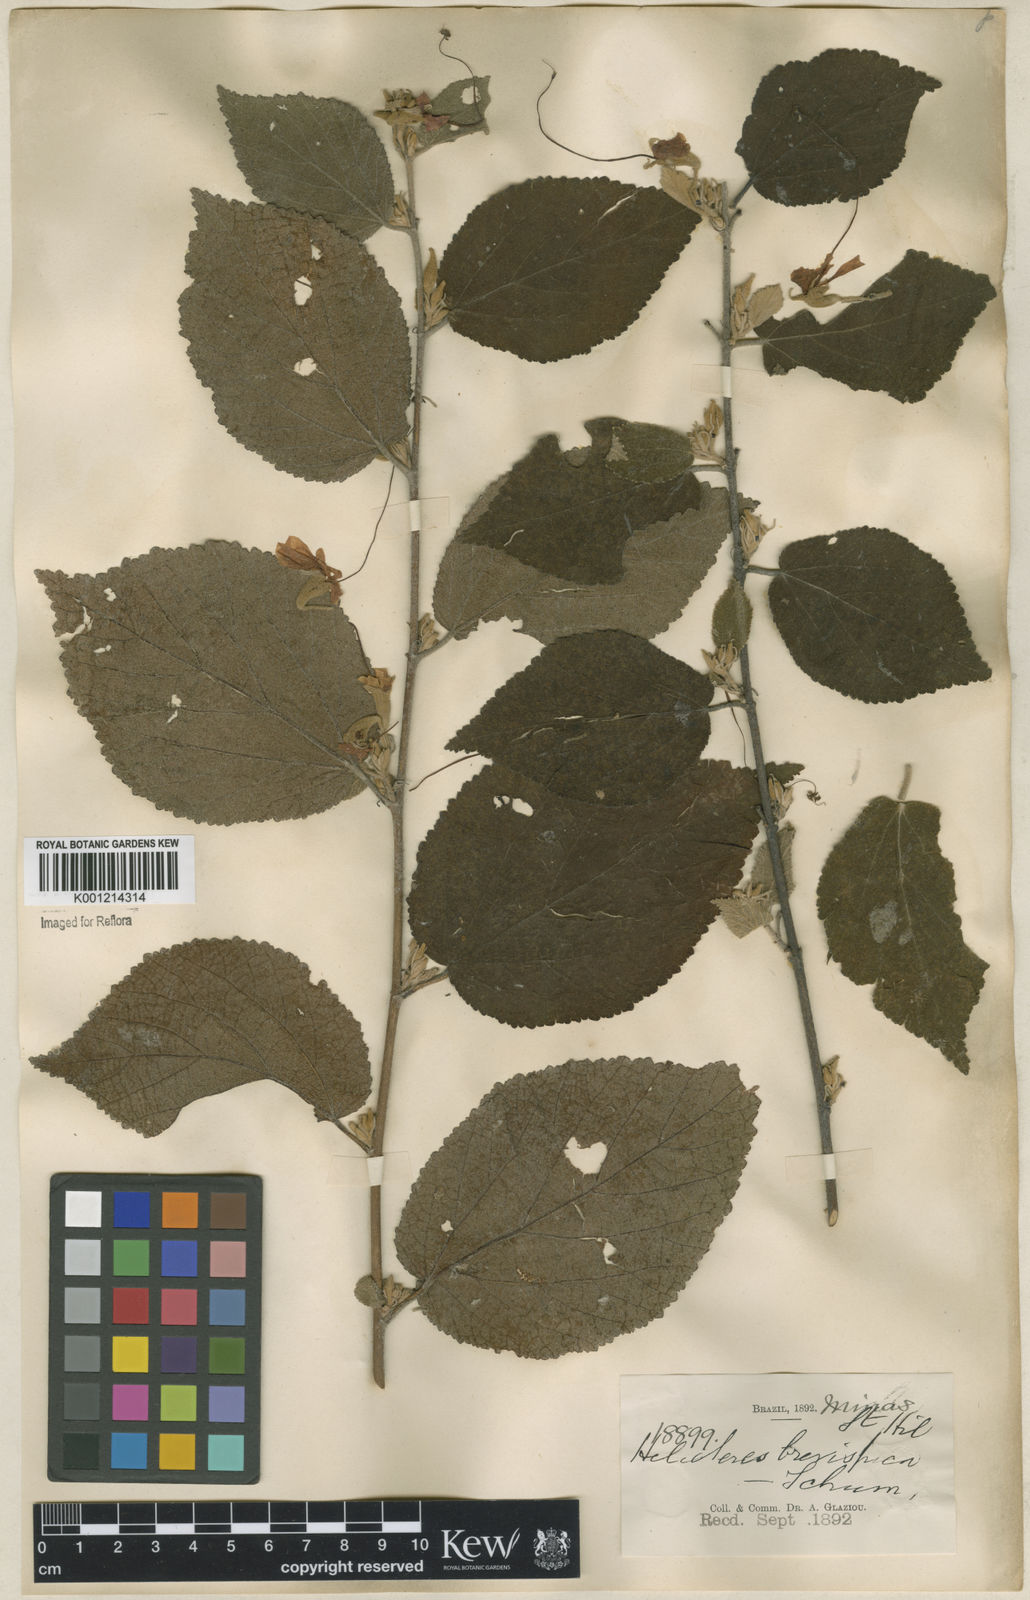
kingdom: Plantae
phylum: Tracheophyta
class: Magnoliopsida
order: Malvales
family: Malvaceae
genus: Helicteres
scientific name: Helicteres
